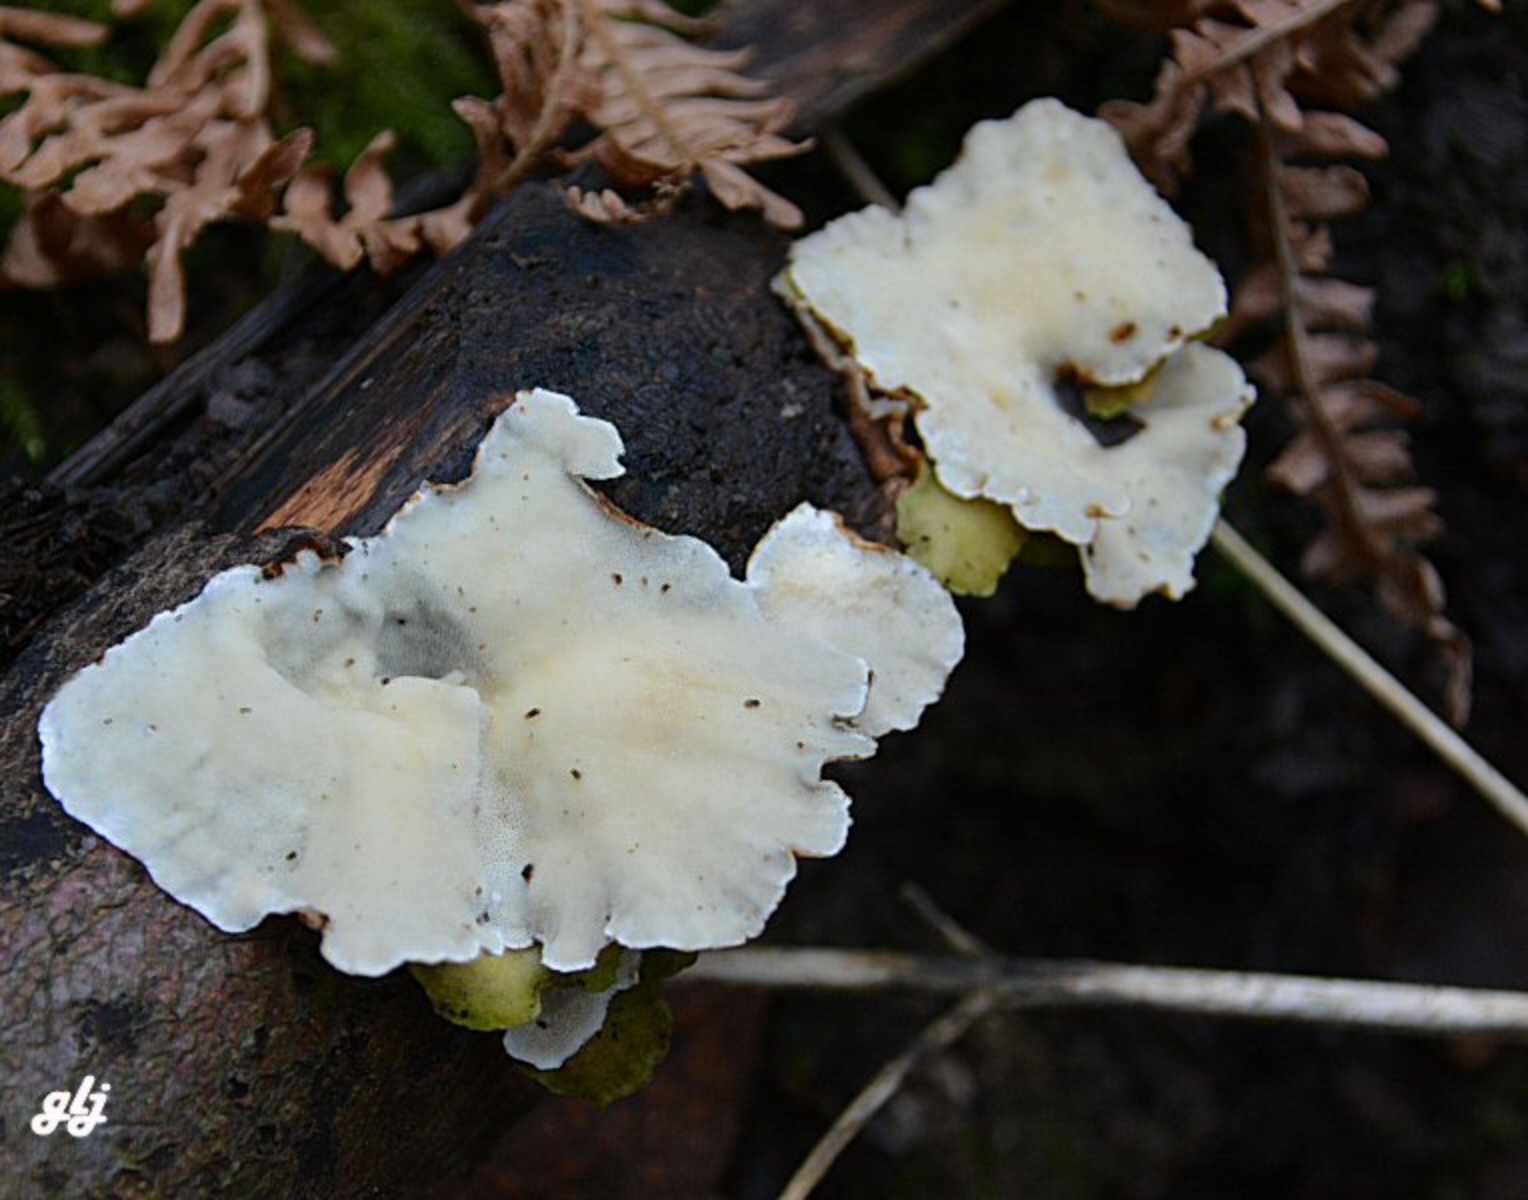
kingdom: Fungi
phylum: Basidiomycota
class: Agaricomycetes
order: Polyporales
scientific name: Polyporales
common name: poresvampordenen
